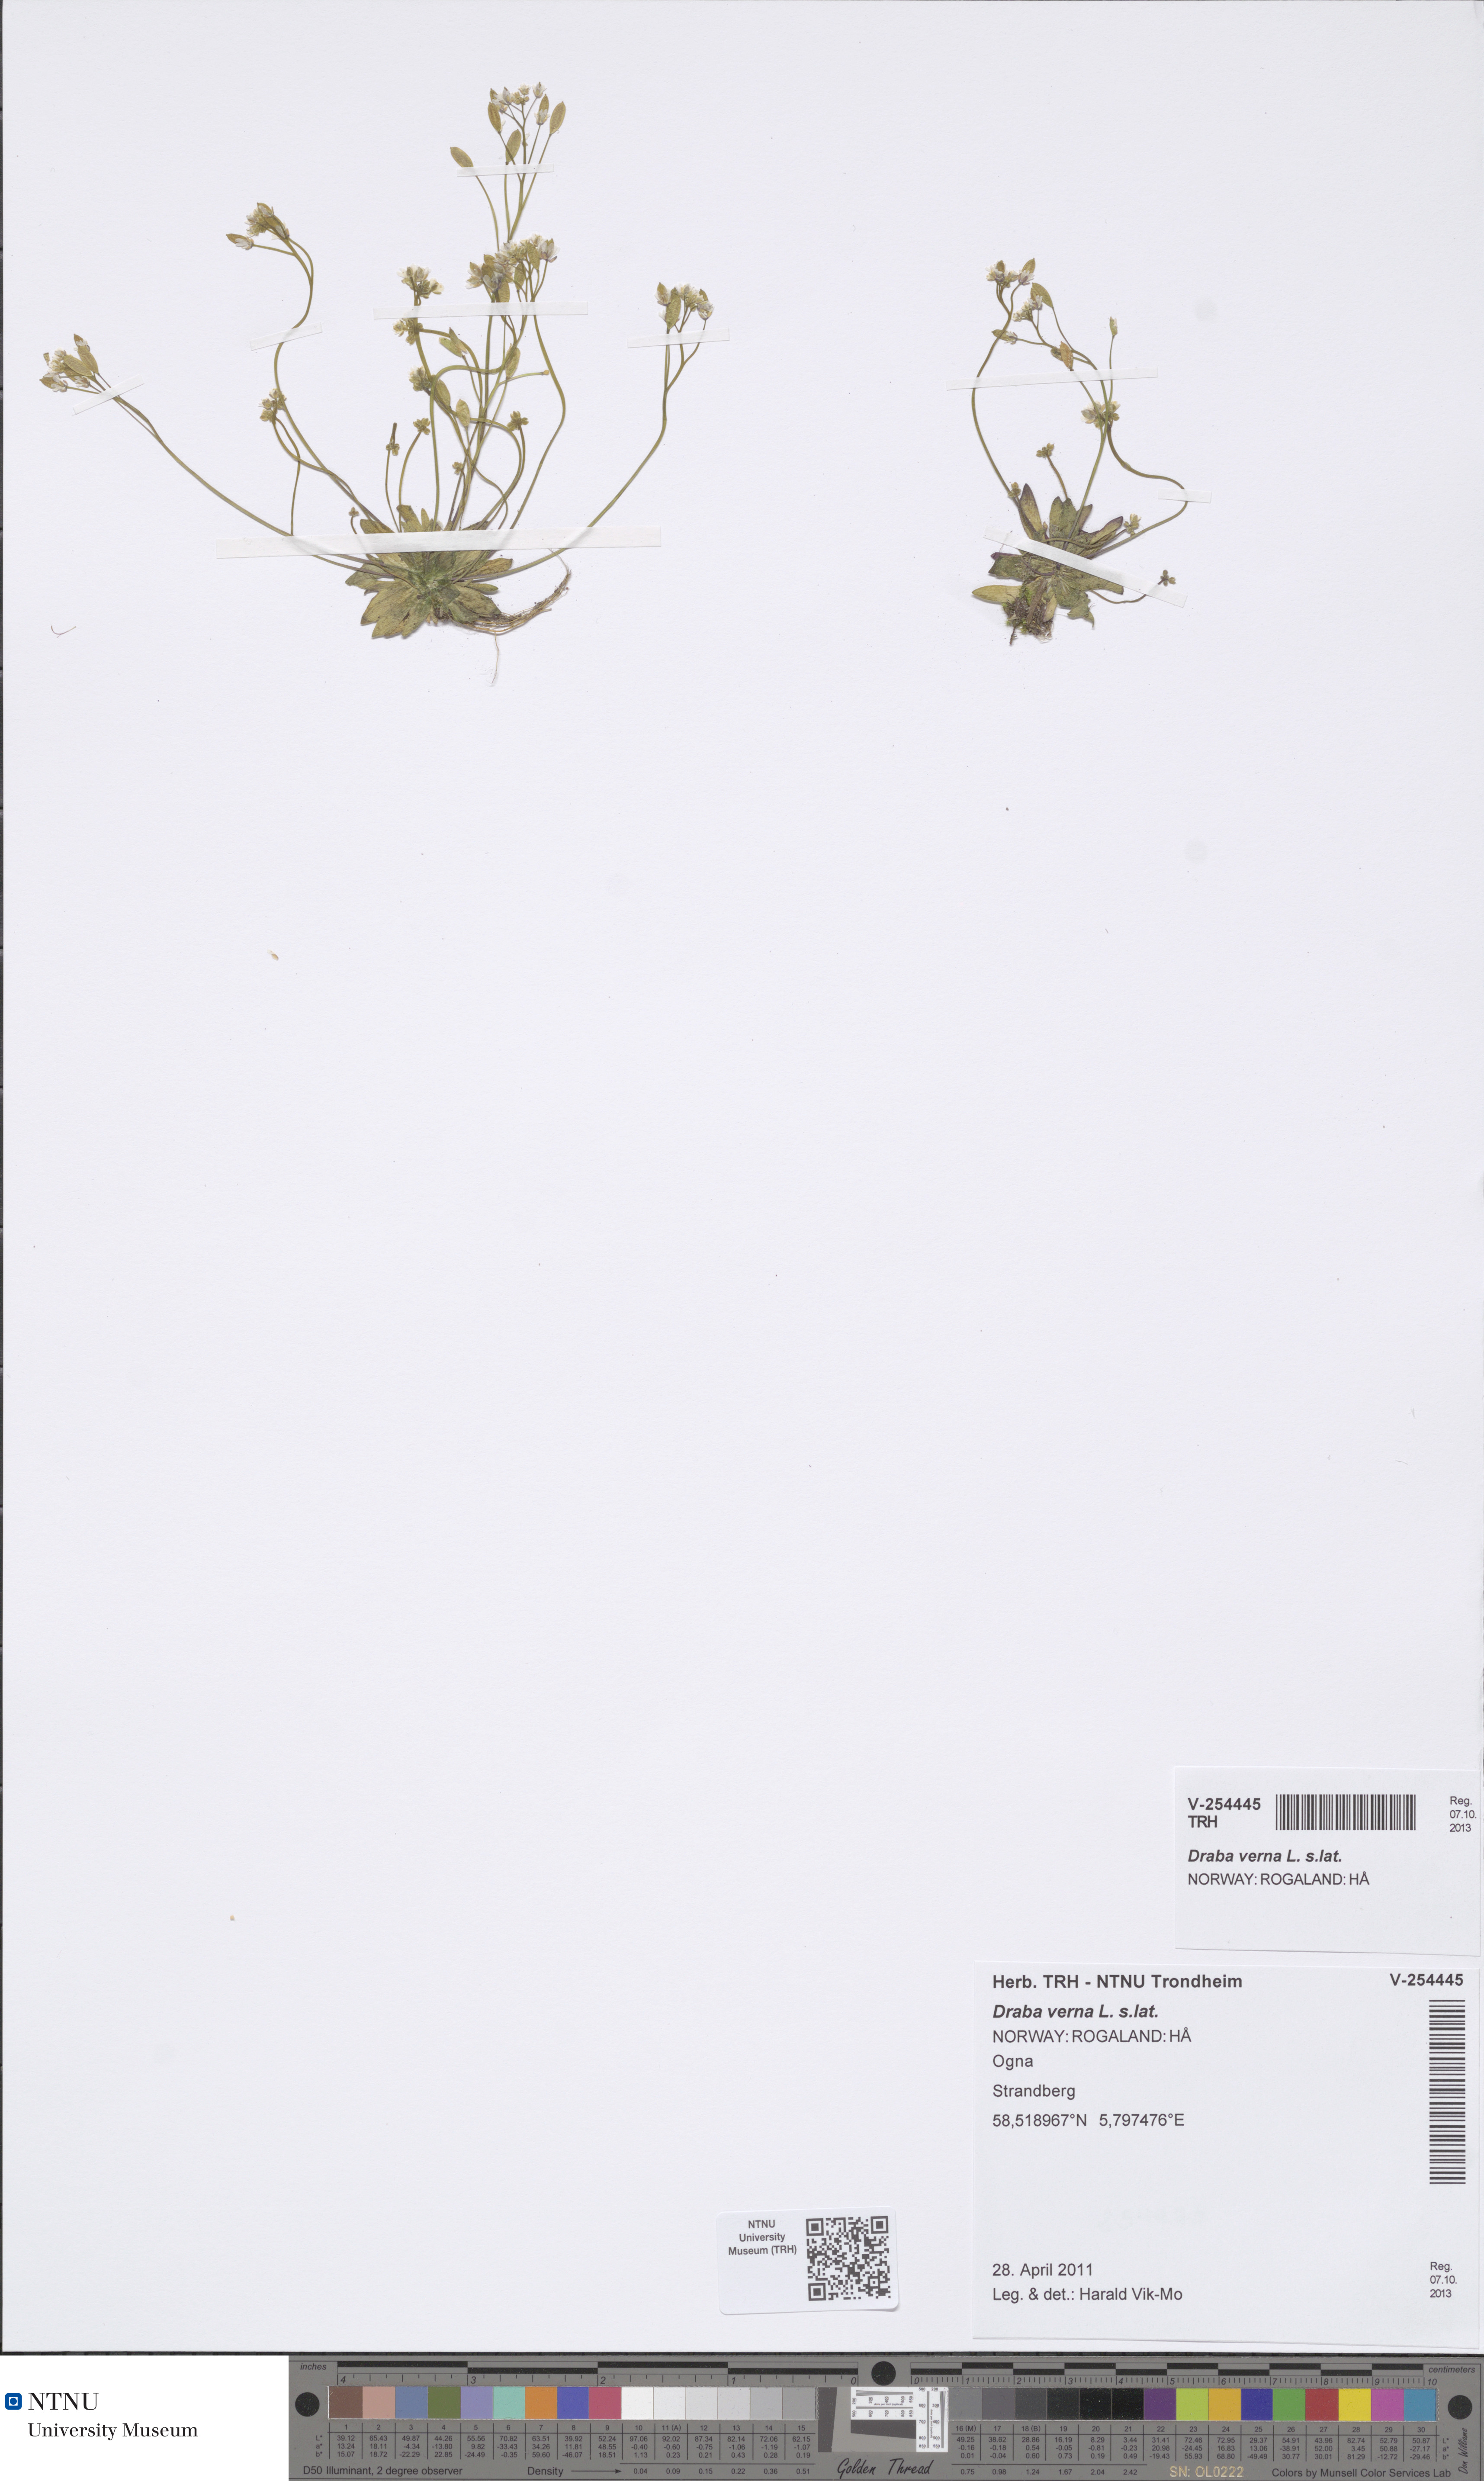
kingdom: Plantae
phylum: Tracheophyta
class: Magnoliopsida
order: Brassicales
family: Brassicaceae
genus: Draba
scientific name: Draba verna
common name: Spring draba
